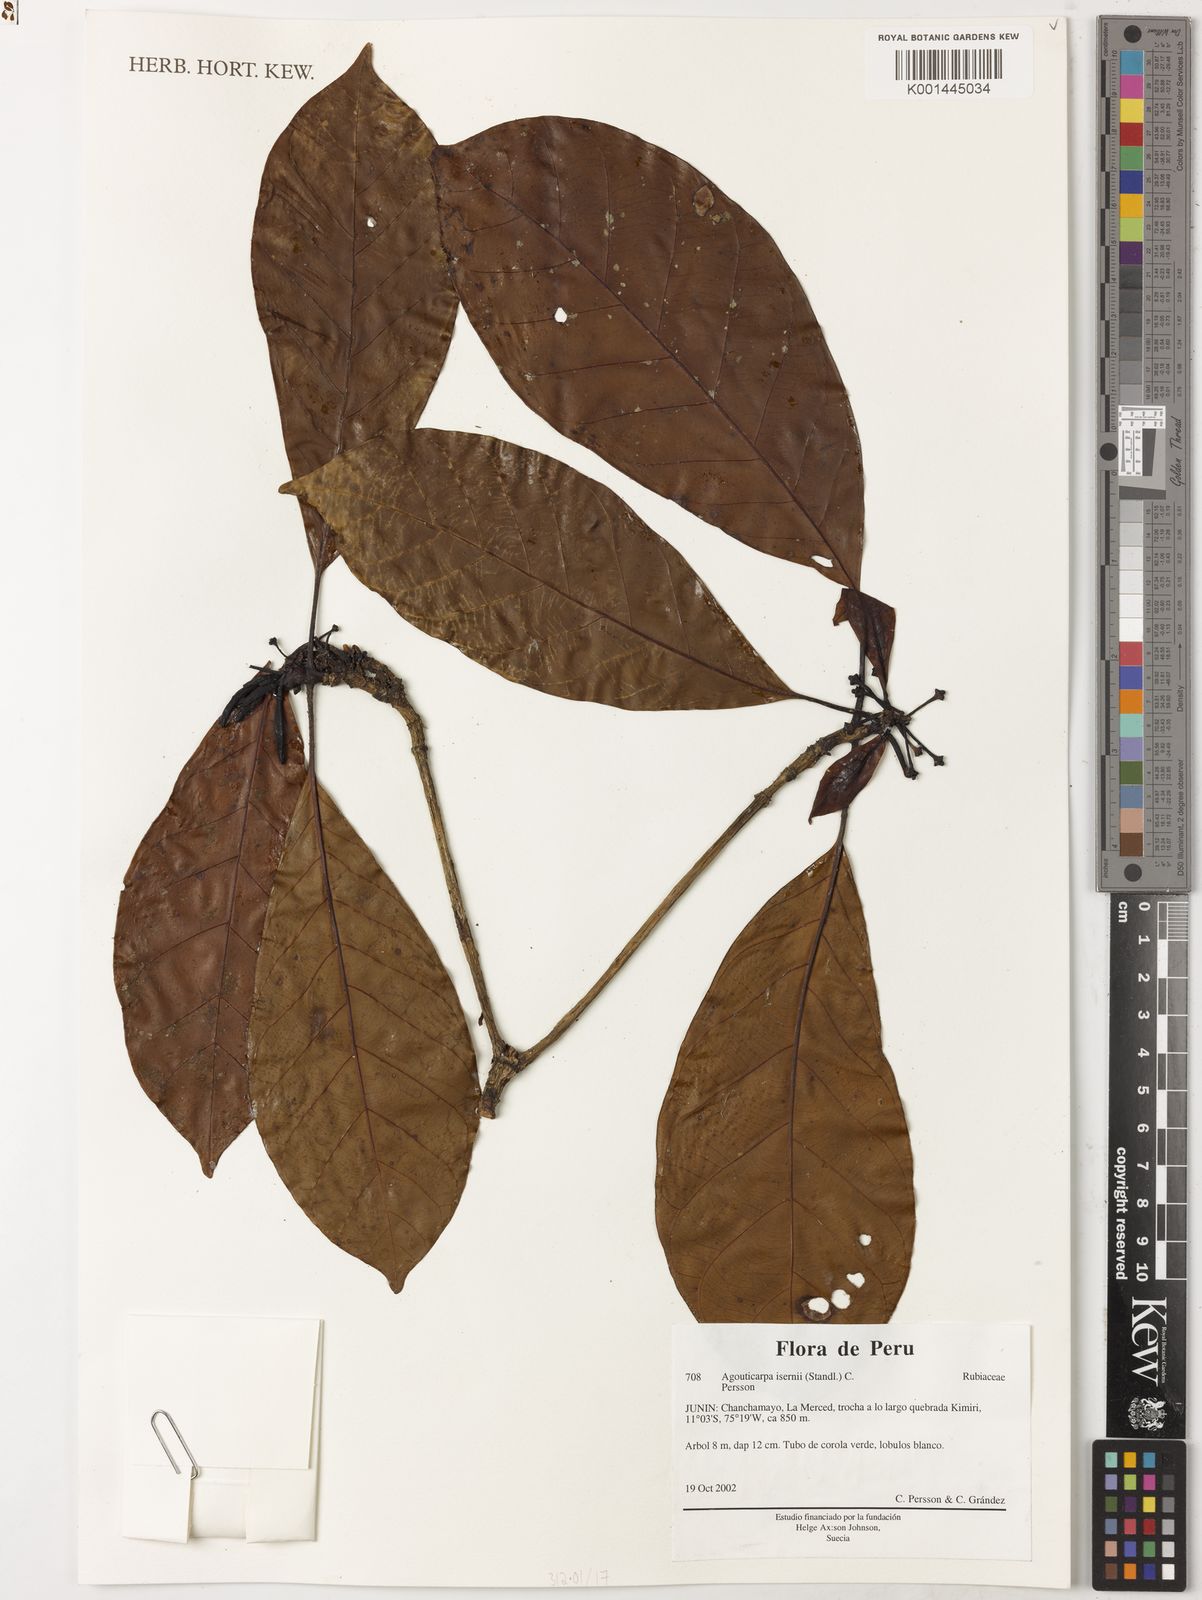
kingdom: Plantae
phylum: Tracheophyta
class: Magnoliopsida
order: Gentianales
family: Rubiaceae
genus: Agouticarpa
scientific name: Agouticarpa isernii
